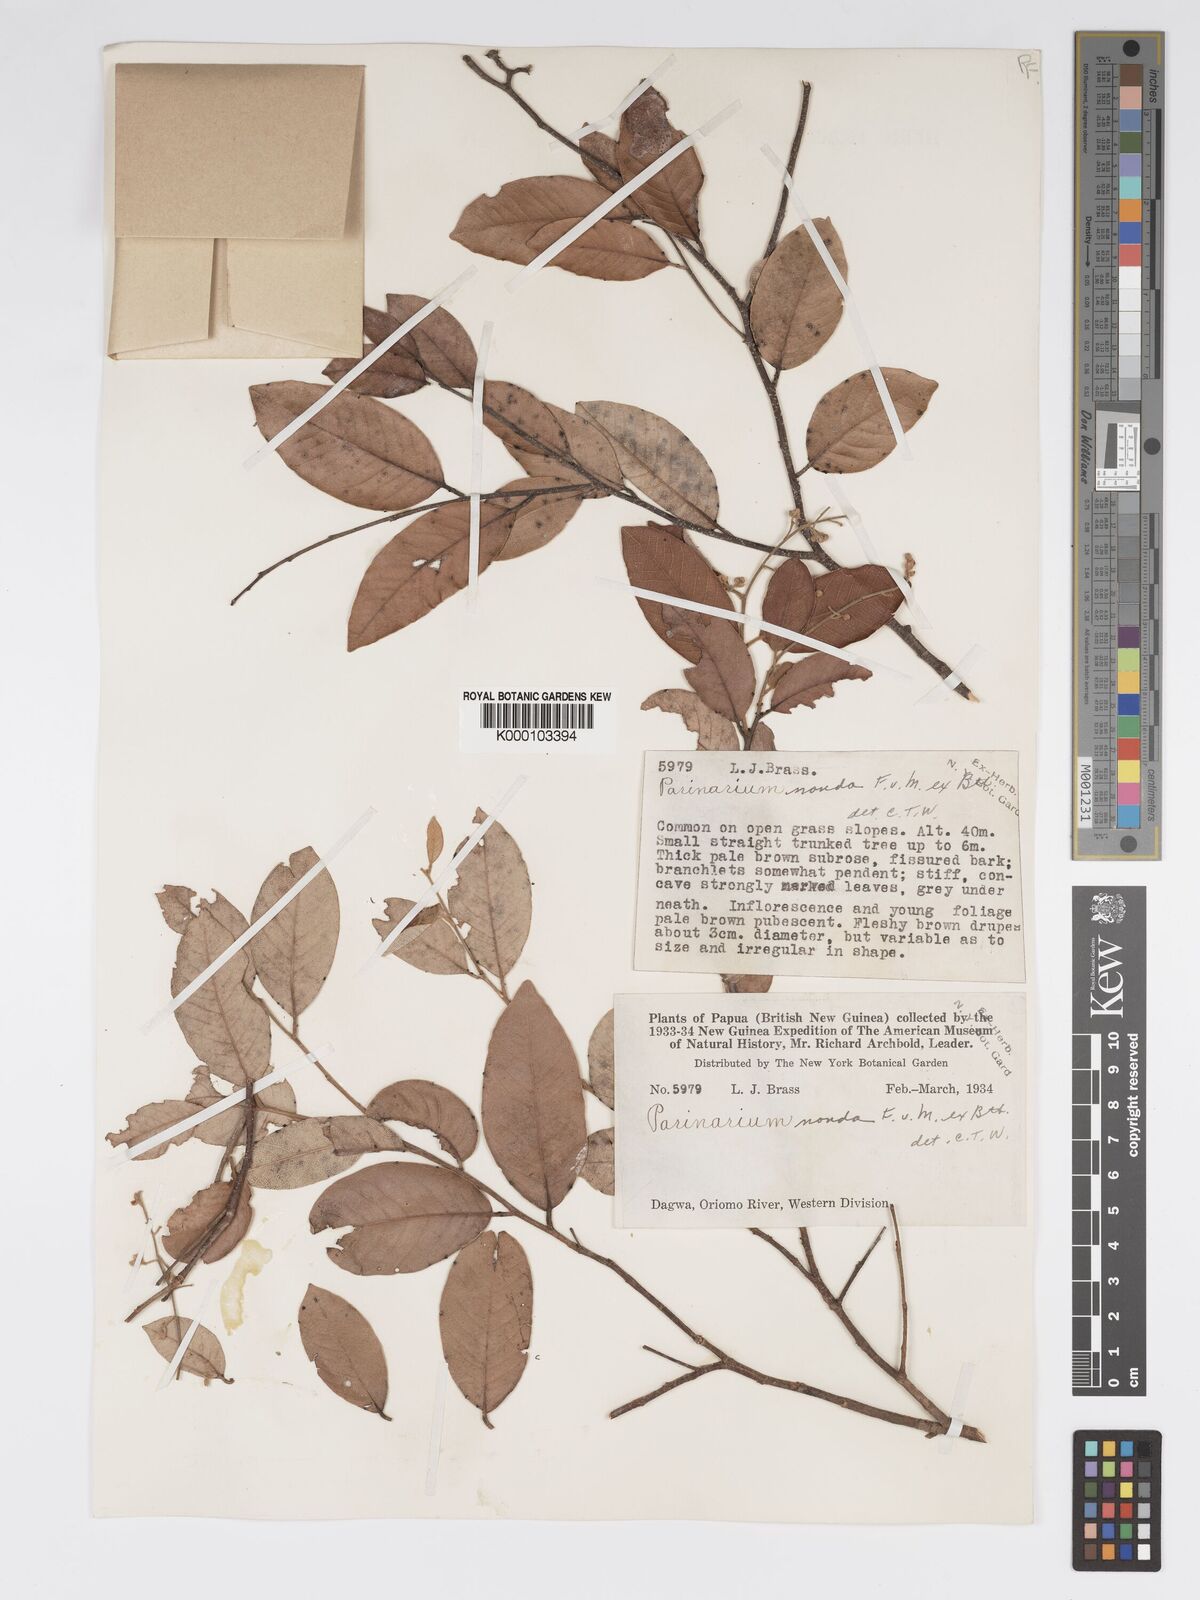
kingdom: Plantae
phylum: Tracheophyta
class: Magnoliopsida
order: Malpighiales
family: Chrysobalanaceae
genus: Parinari
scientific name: Parinari nonda
